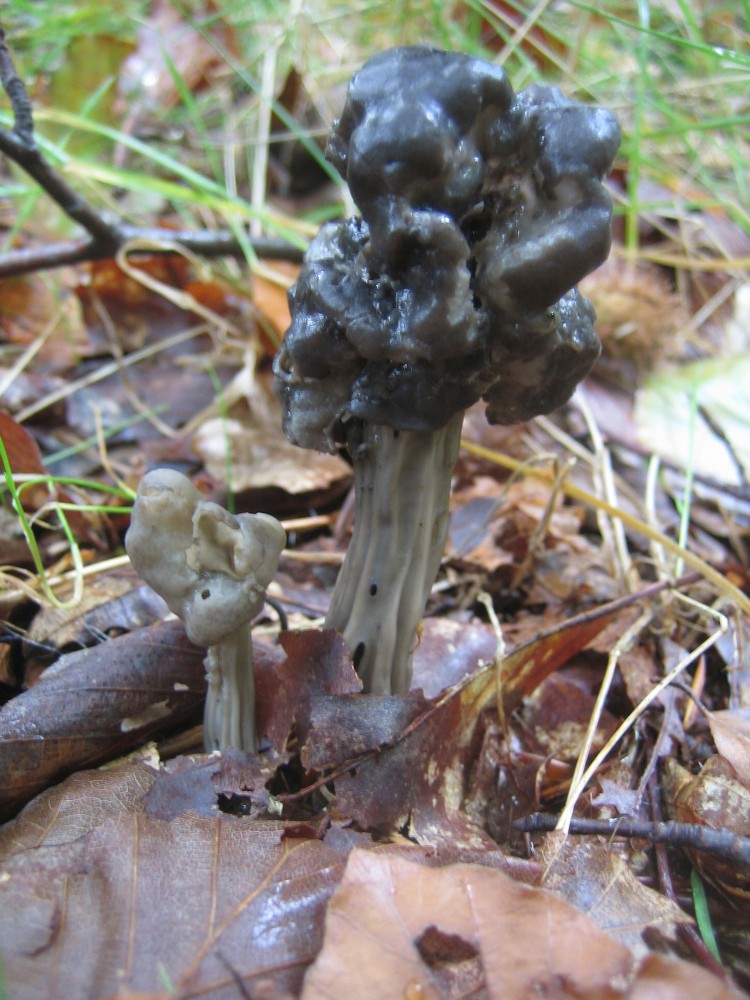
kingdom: Fungi
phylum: Ascomycota
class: Pezizomycetes
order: Pezizales
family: Helvellaceae
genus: Helvella
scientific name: Helvella lacunosa
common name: grubet foldhat
